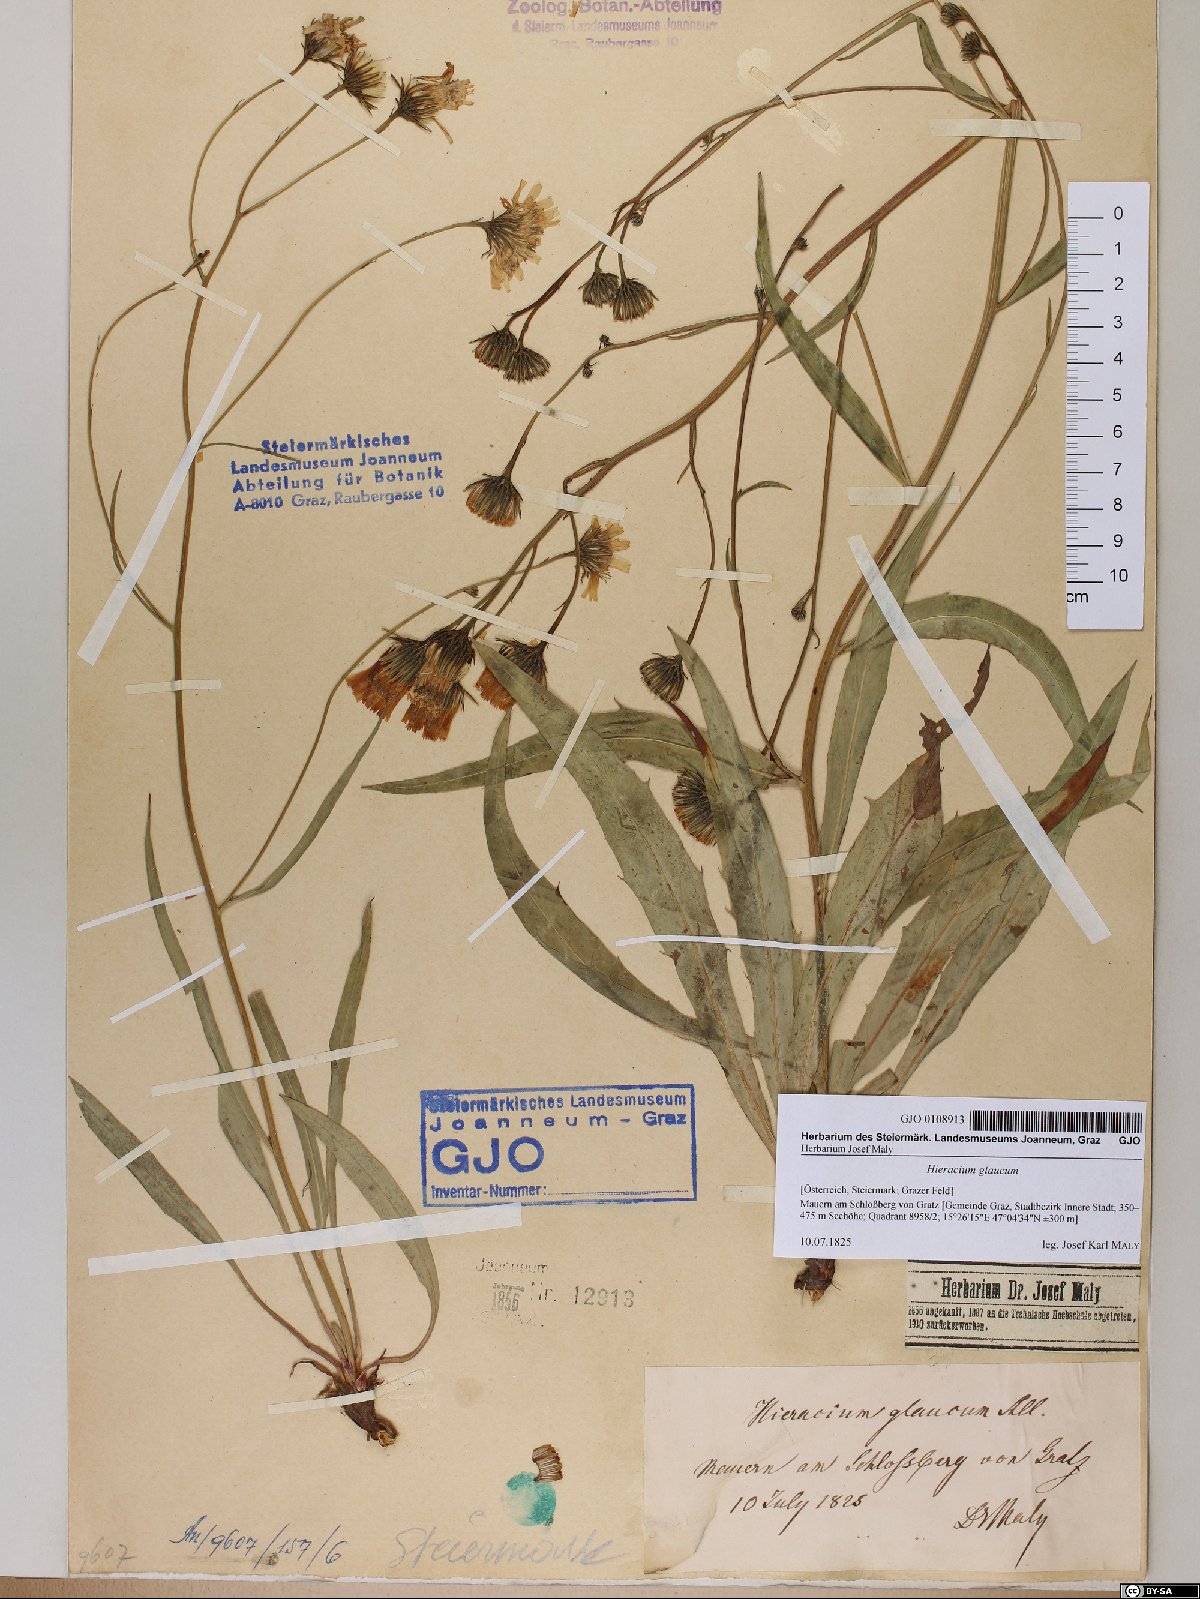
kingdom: Plantae
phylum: Tracheophyta
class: Magnoliopsida
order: Asterales
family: Asteraceae
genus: Hieracium
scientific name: Hieracium glaucum
